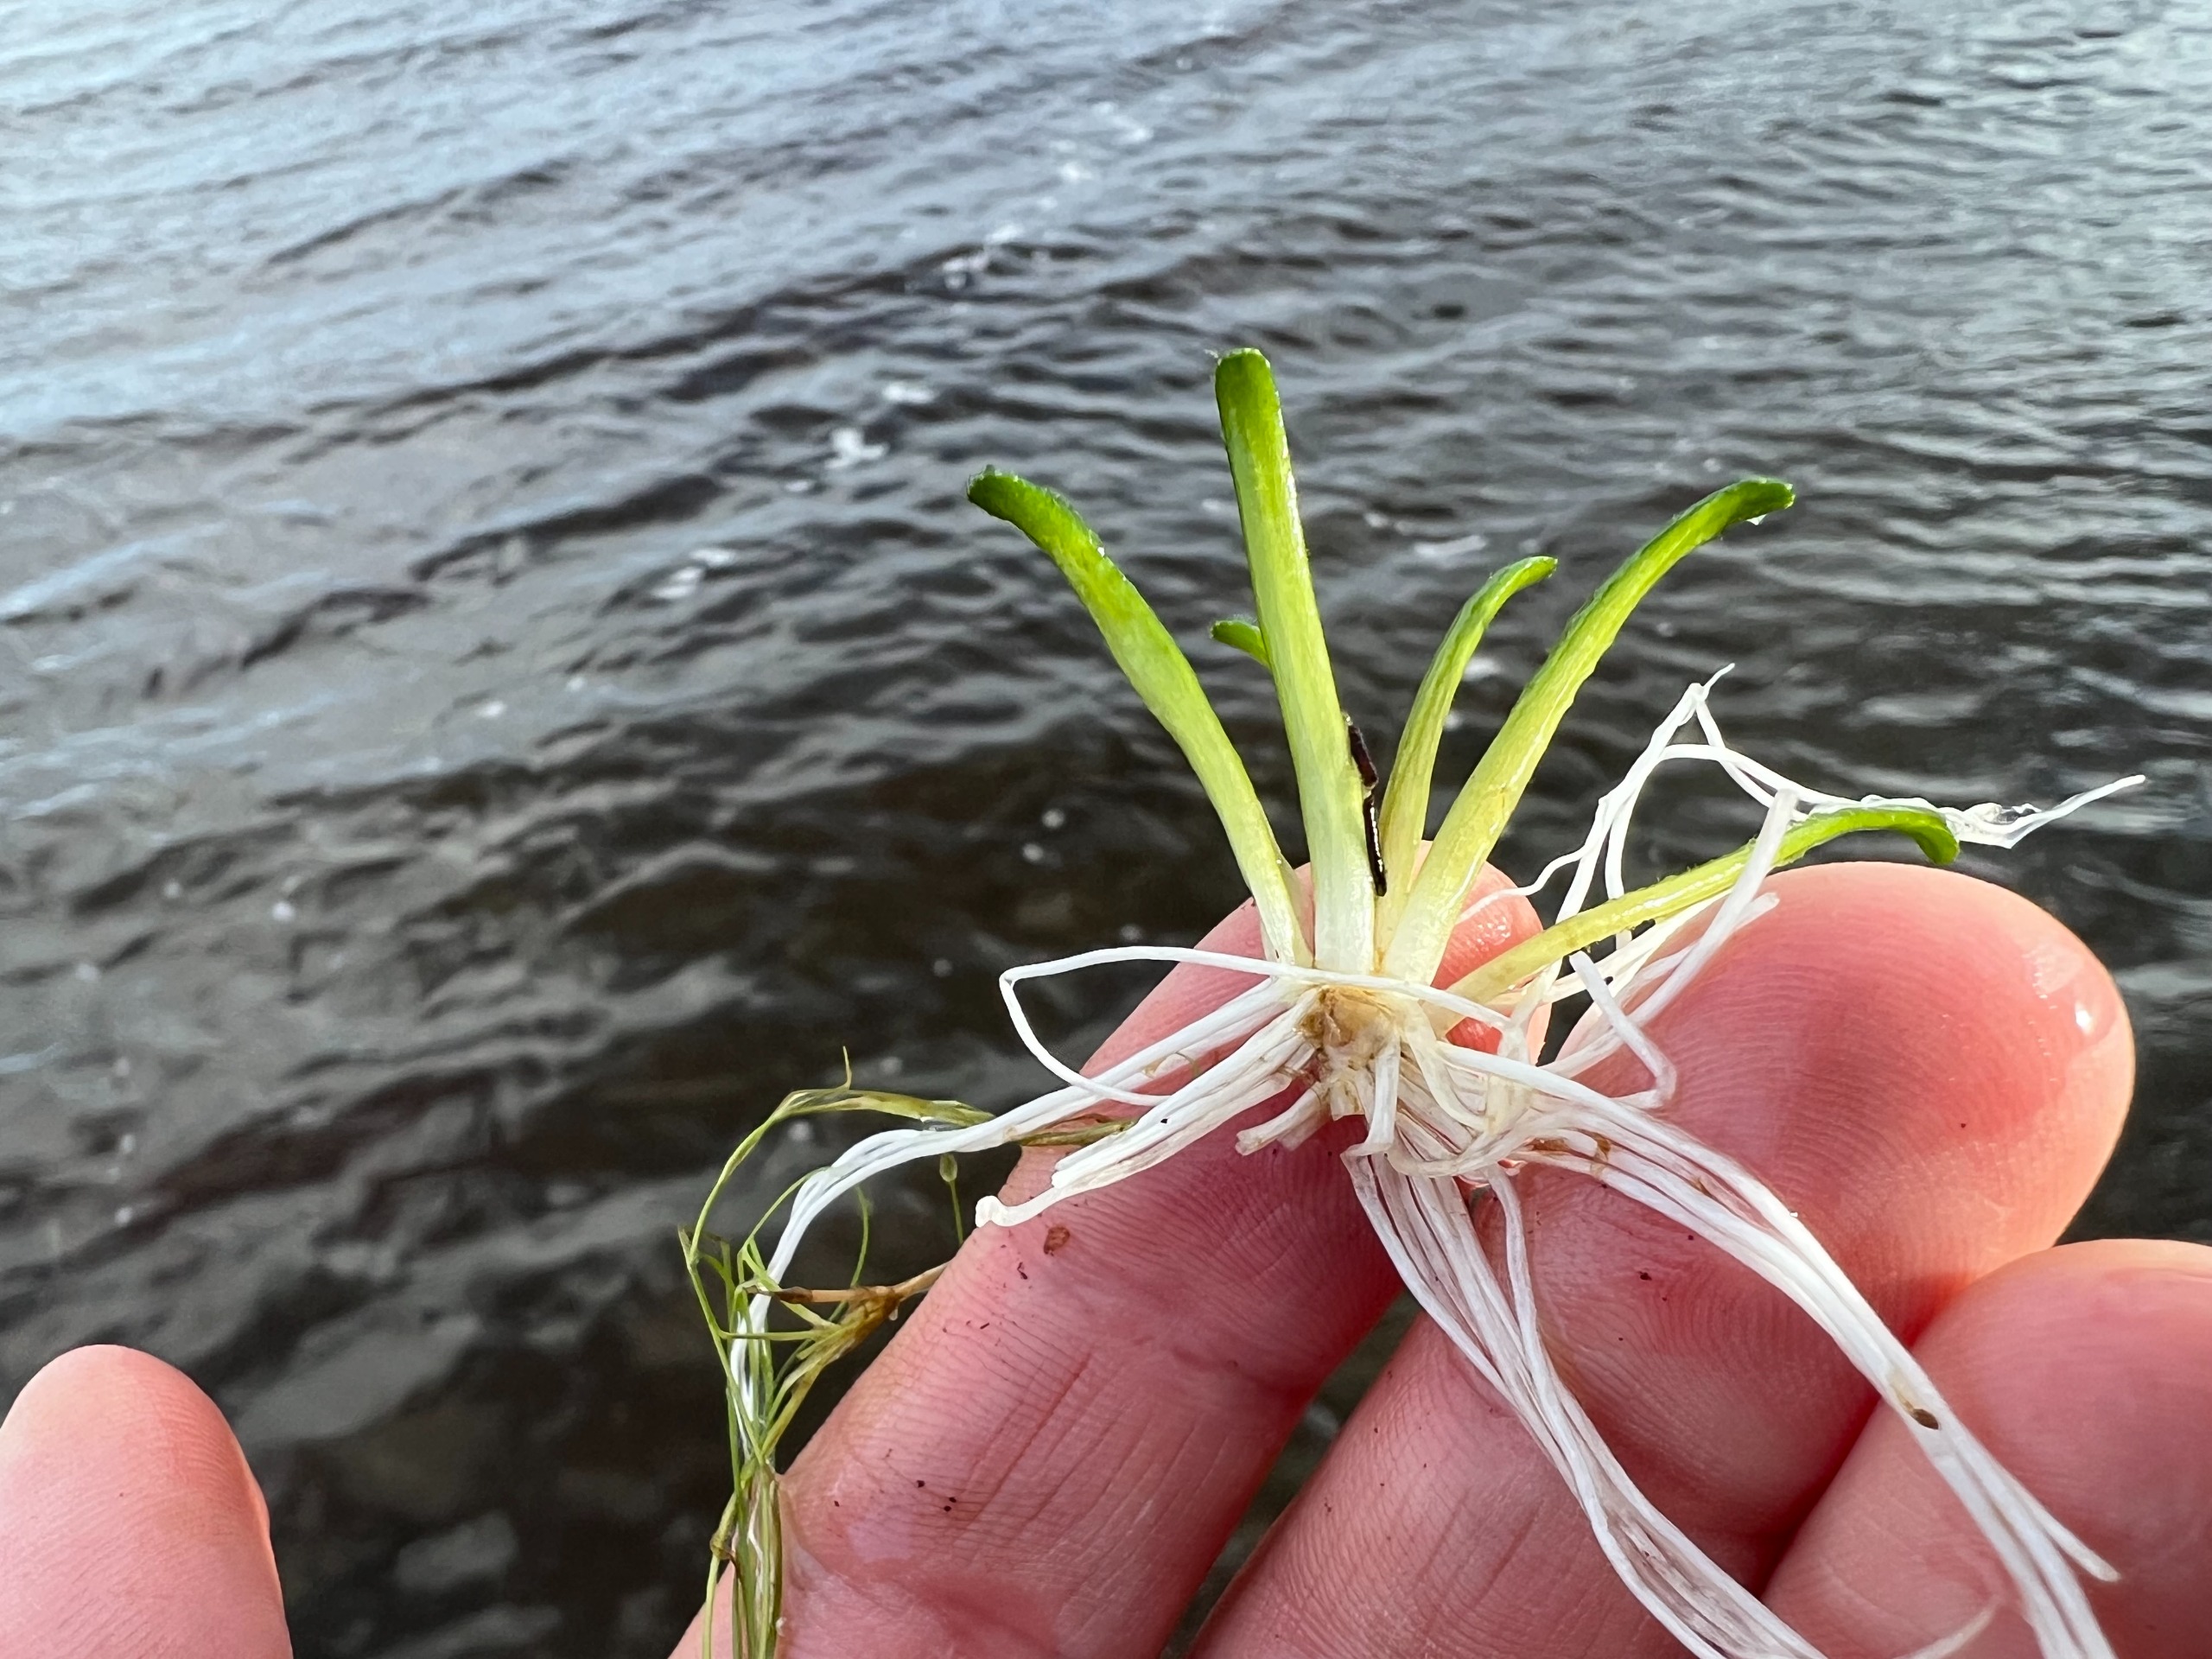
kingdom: Plantae
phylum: Tracheophyta
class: Magnoliopsida
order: Asterales
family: Campanulaceae
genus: Lobelia
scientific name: Lobelia dortmanna
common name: Tvepibet lobelie
